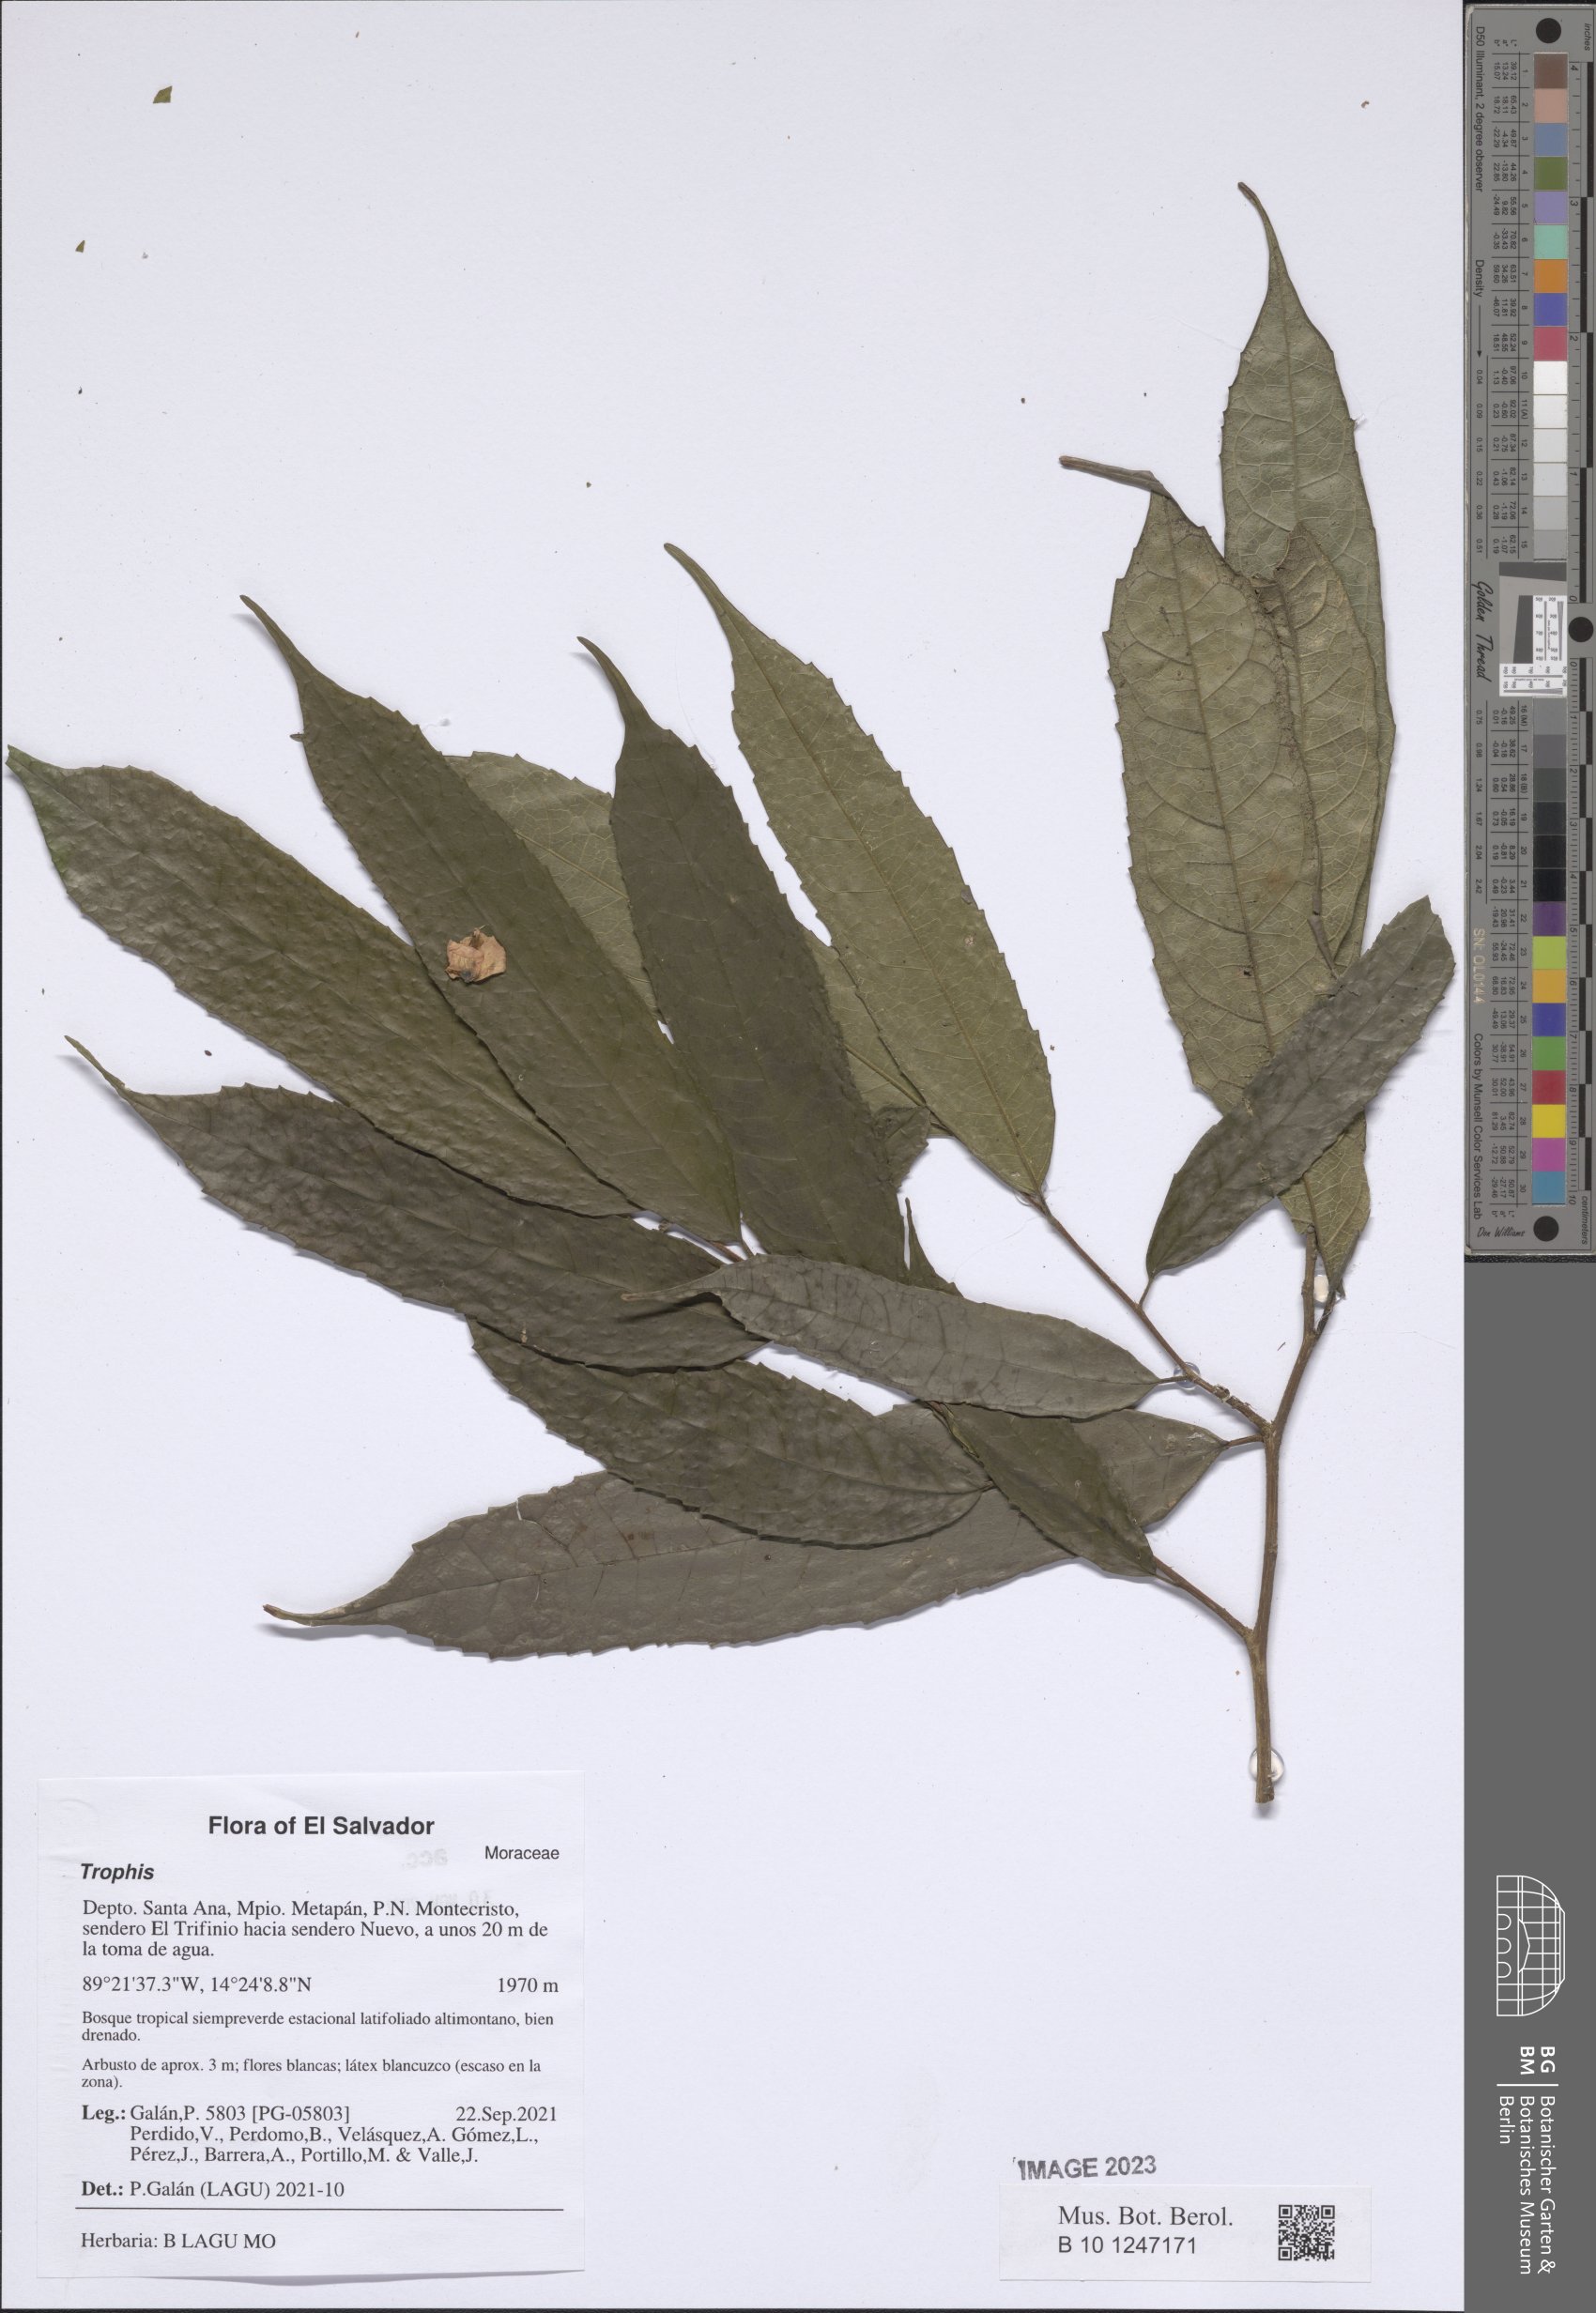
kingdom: Plantae
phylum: Tracheophyta
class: Magnoliopsida
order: Rosales
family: Moraceae
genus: Trophis
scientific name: Trophis
